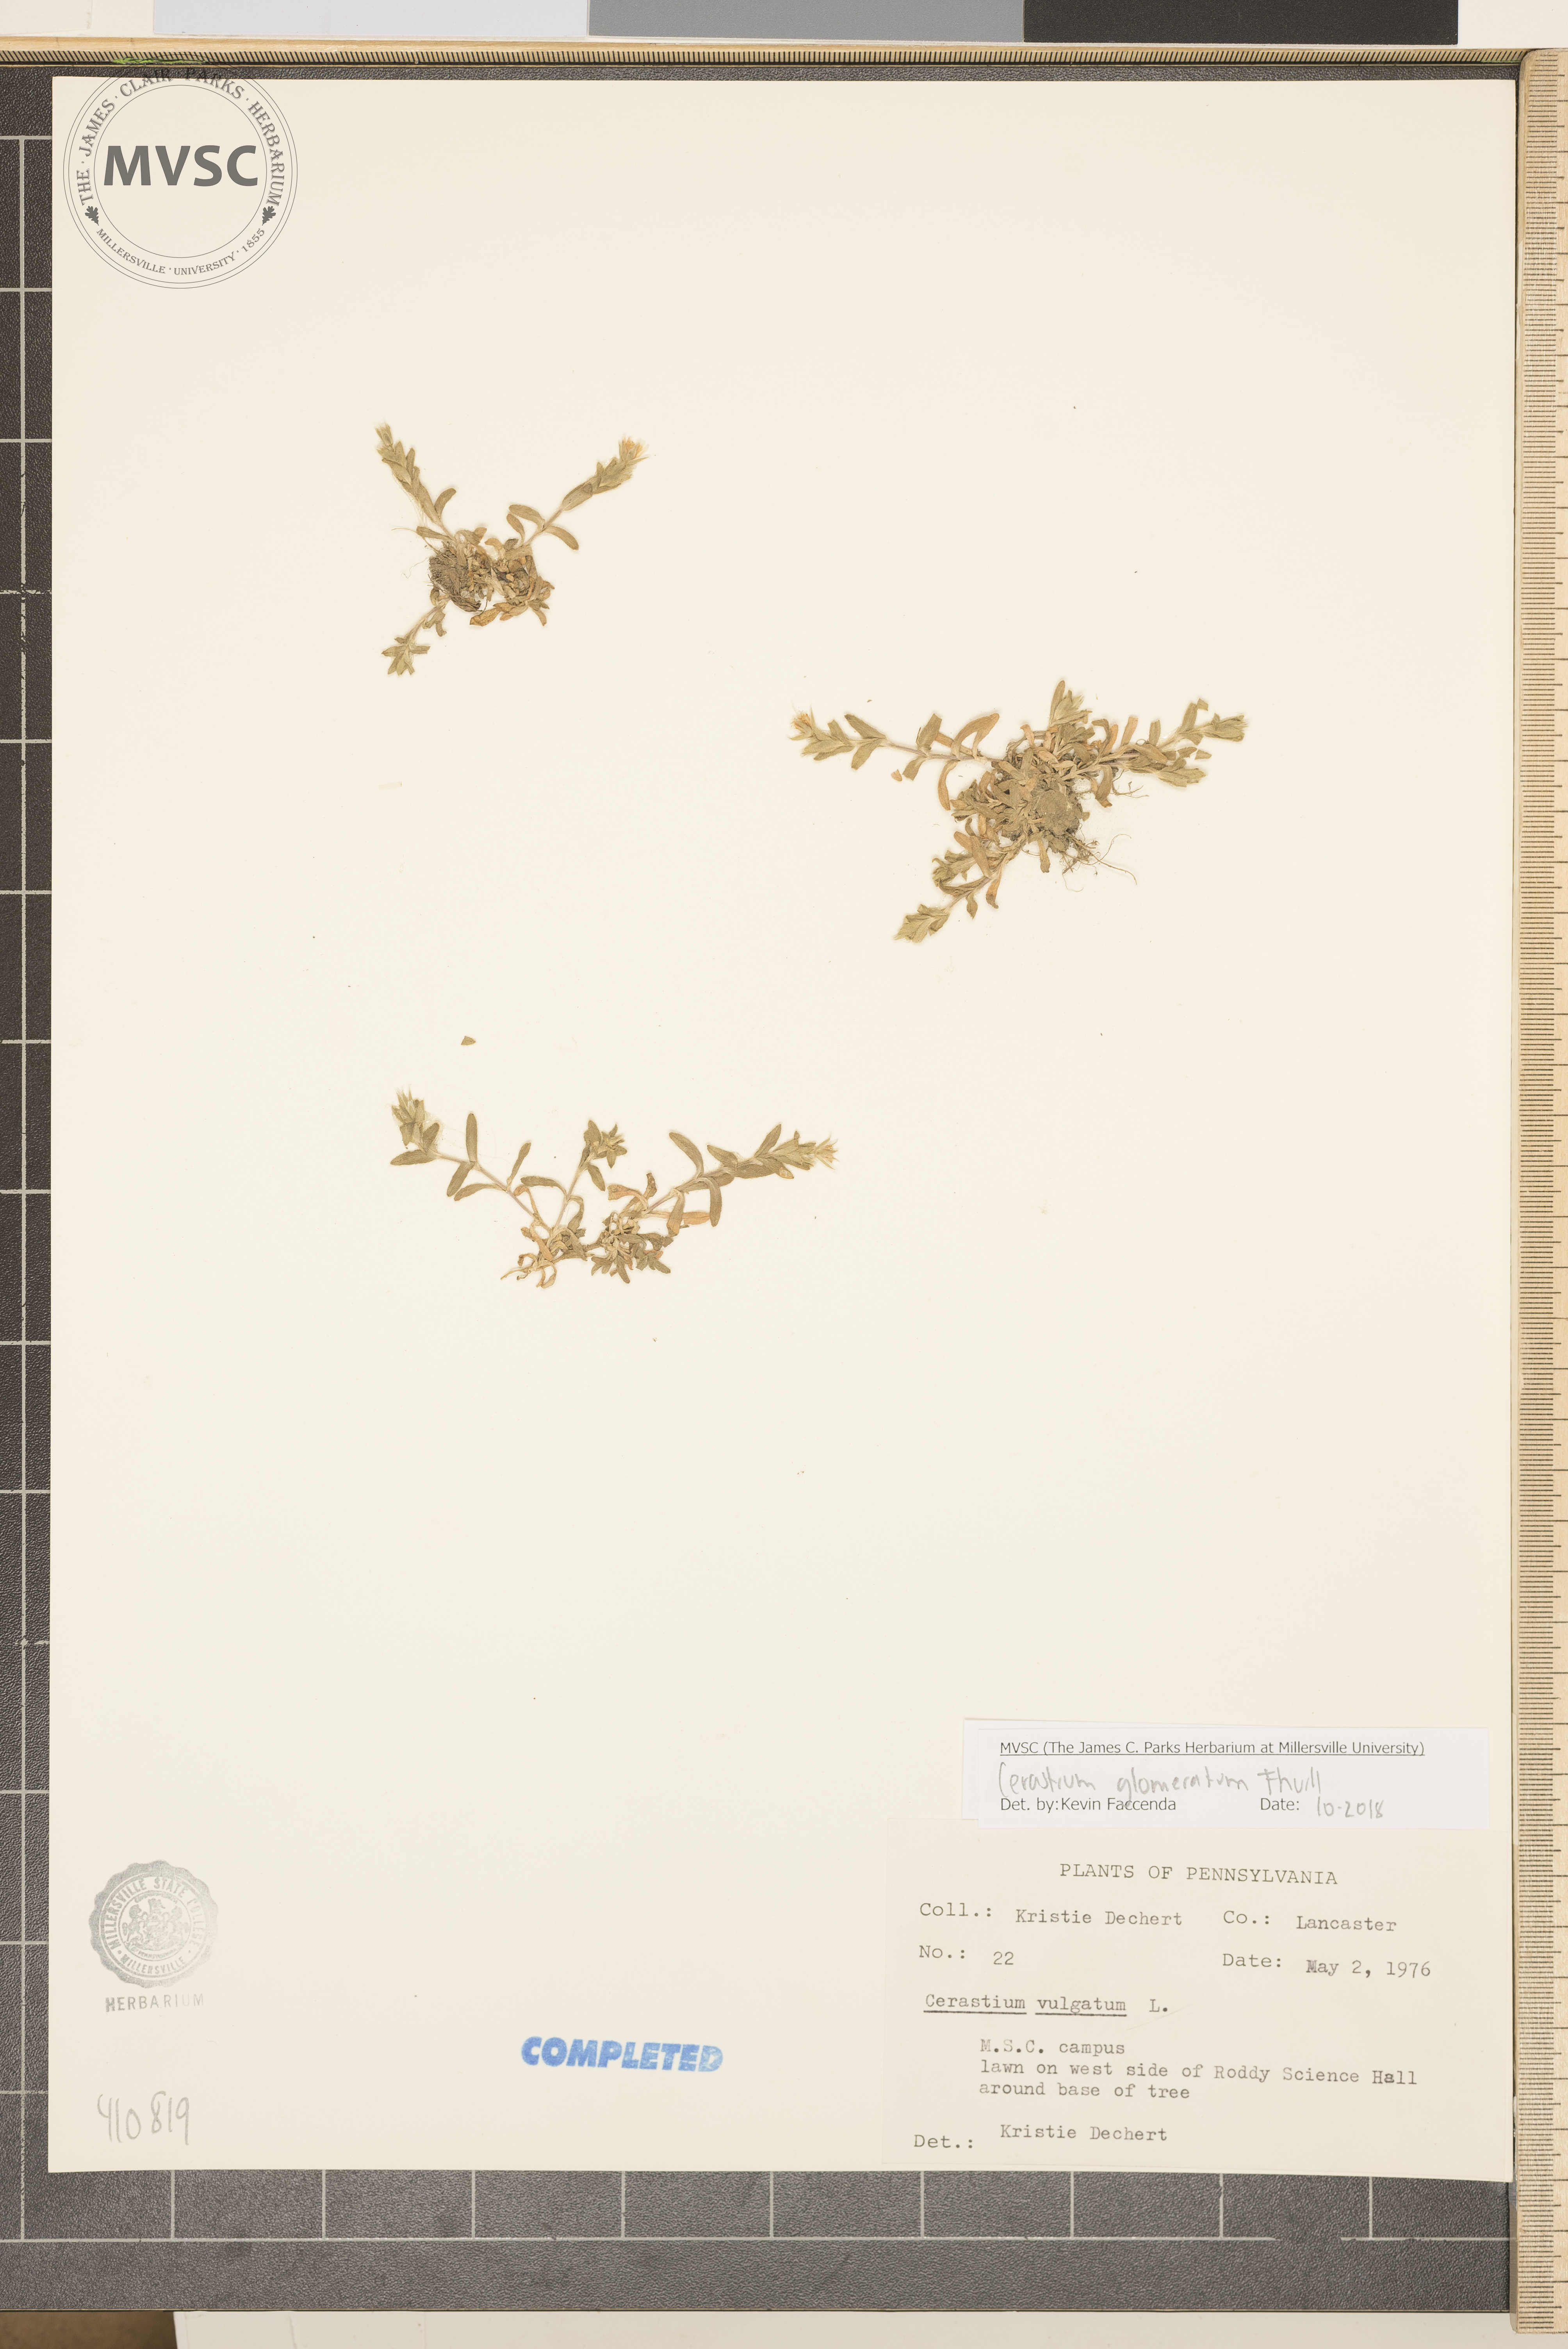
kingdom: Plantae
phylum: Tracheophyta
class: Magnoliopsida
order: Caryophyllales
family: Caryophyllaceae
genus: Cerastium
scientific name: Cerastium glomeratum
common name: Sticky chickweed
